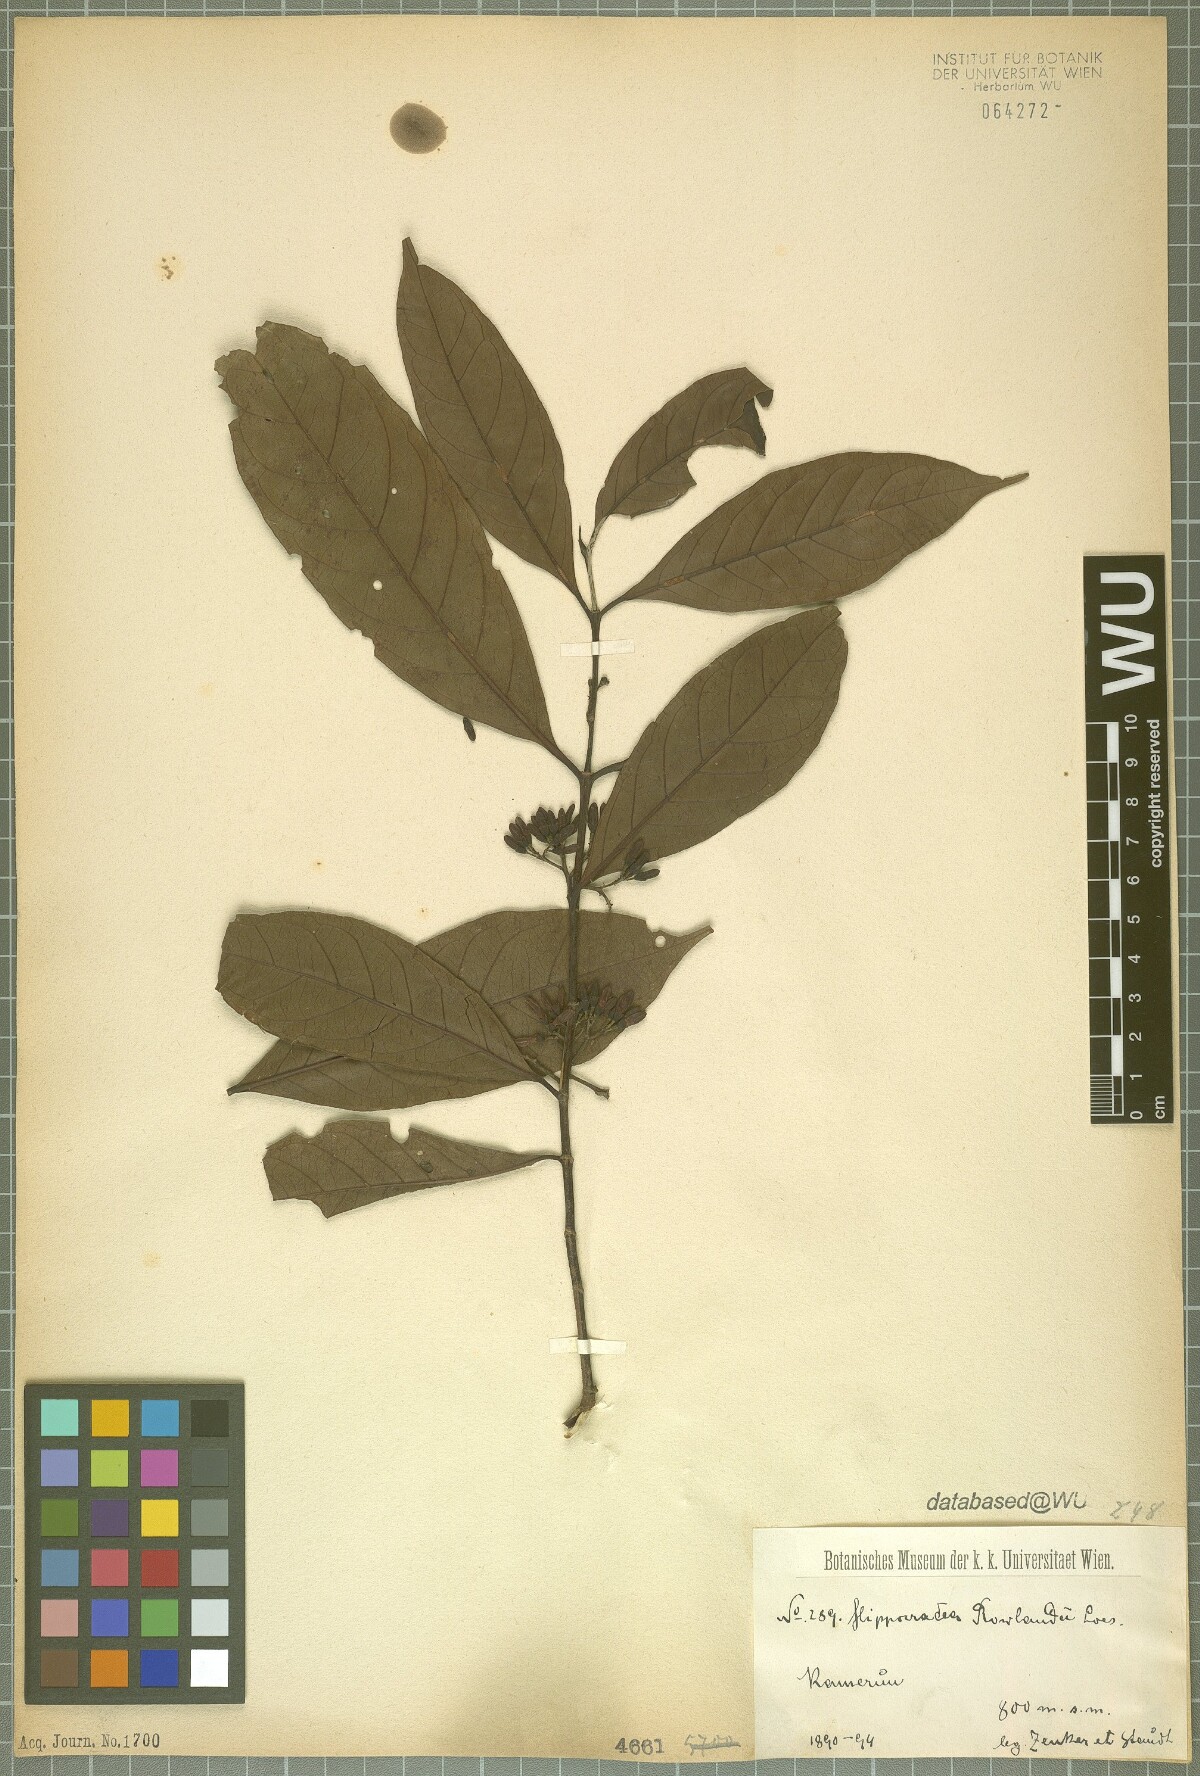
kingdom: Plantae
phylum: Tracheophyta
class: Magnoliopsida
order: Celastrales
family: Celastraceae
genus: Loeseneriella
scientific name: Loeseneriella rowlandii
